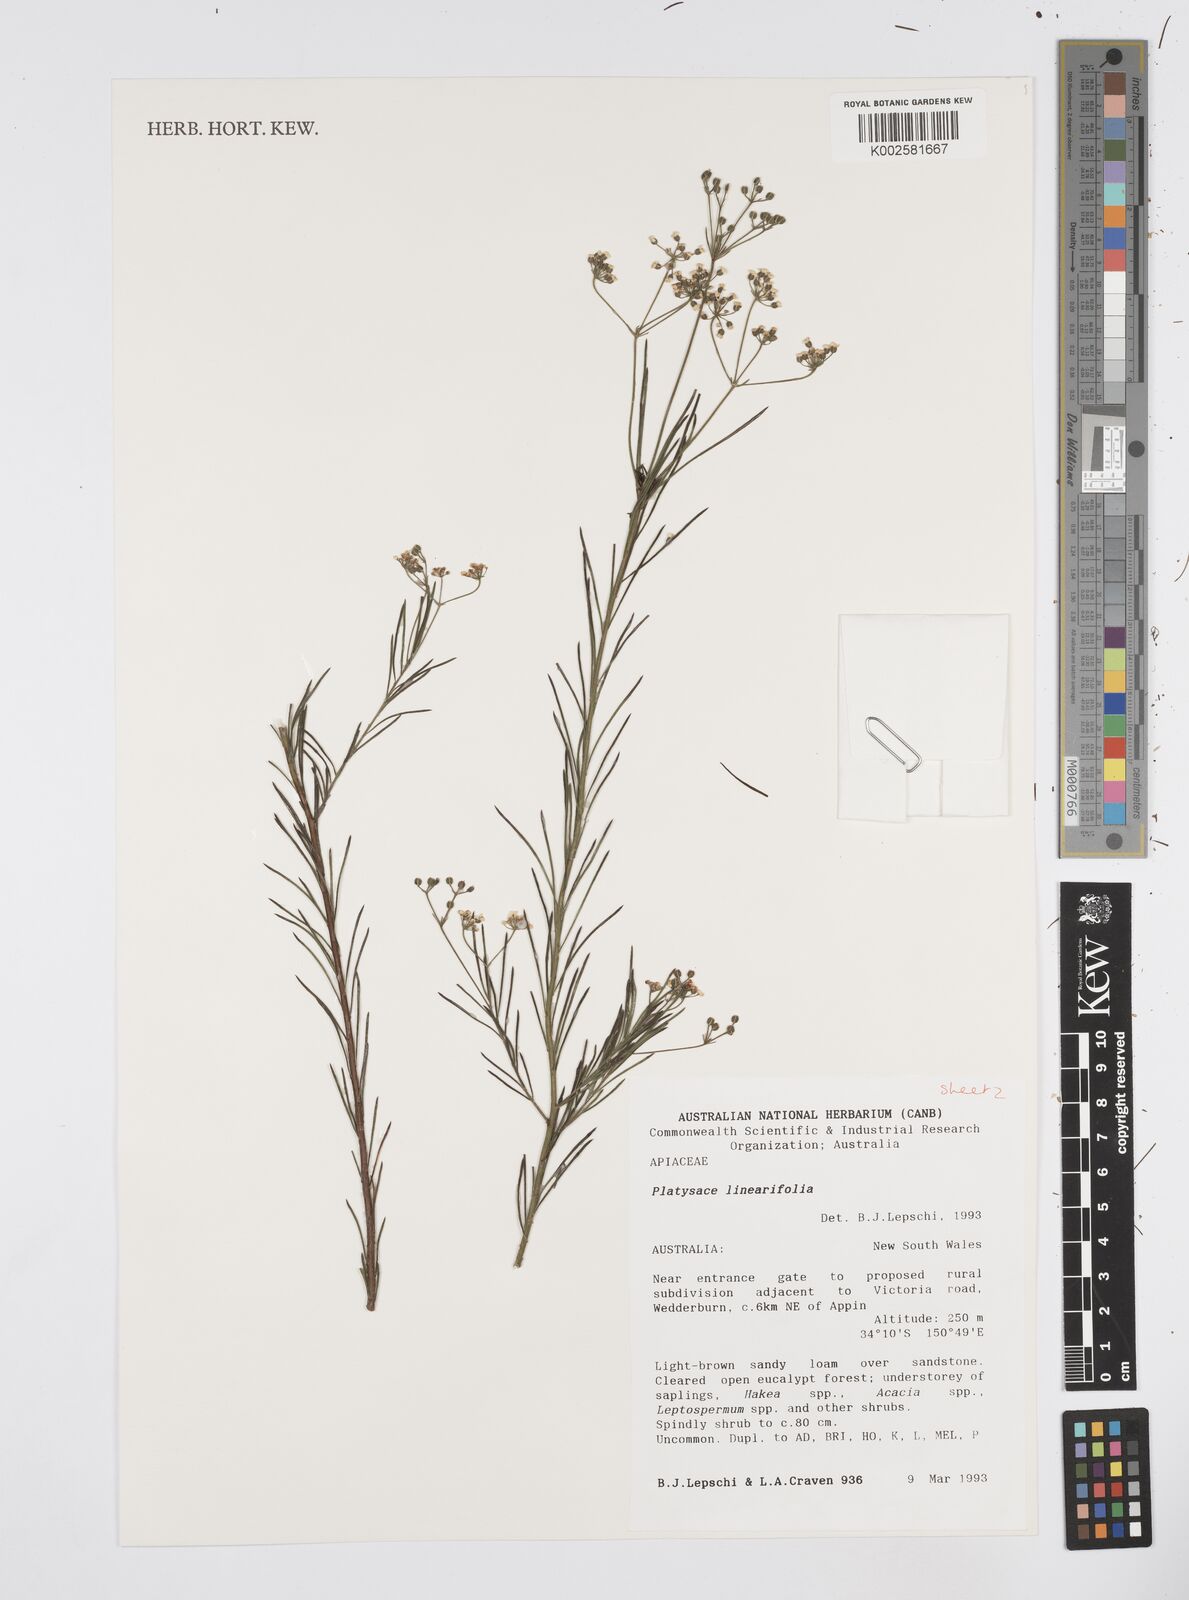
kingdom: Plantae
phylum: Tracheophyta
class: Magnoliopsida
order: Apiales
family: Apiaceae
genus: Platysace
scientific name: Platysace linearifolia
